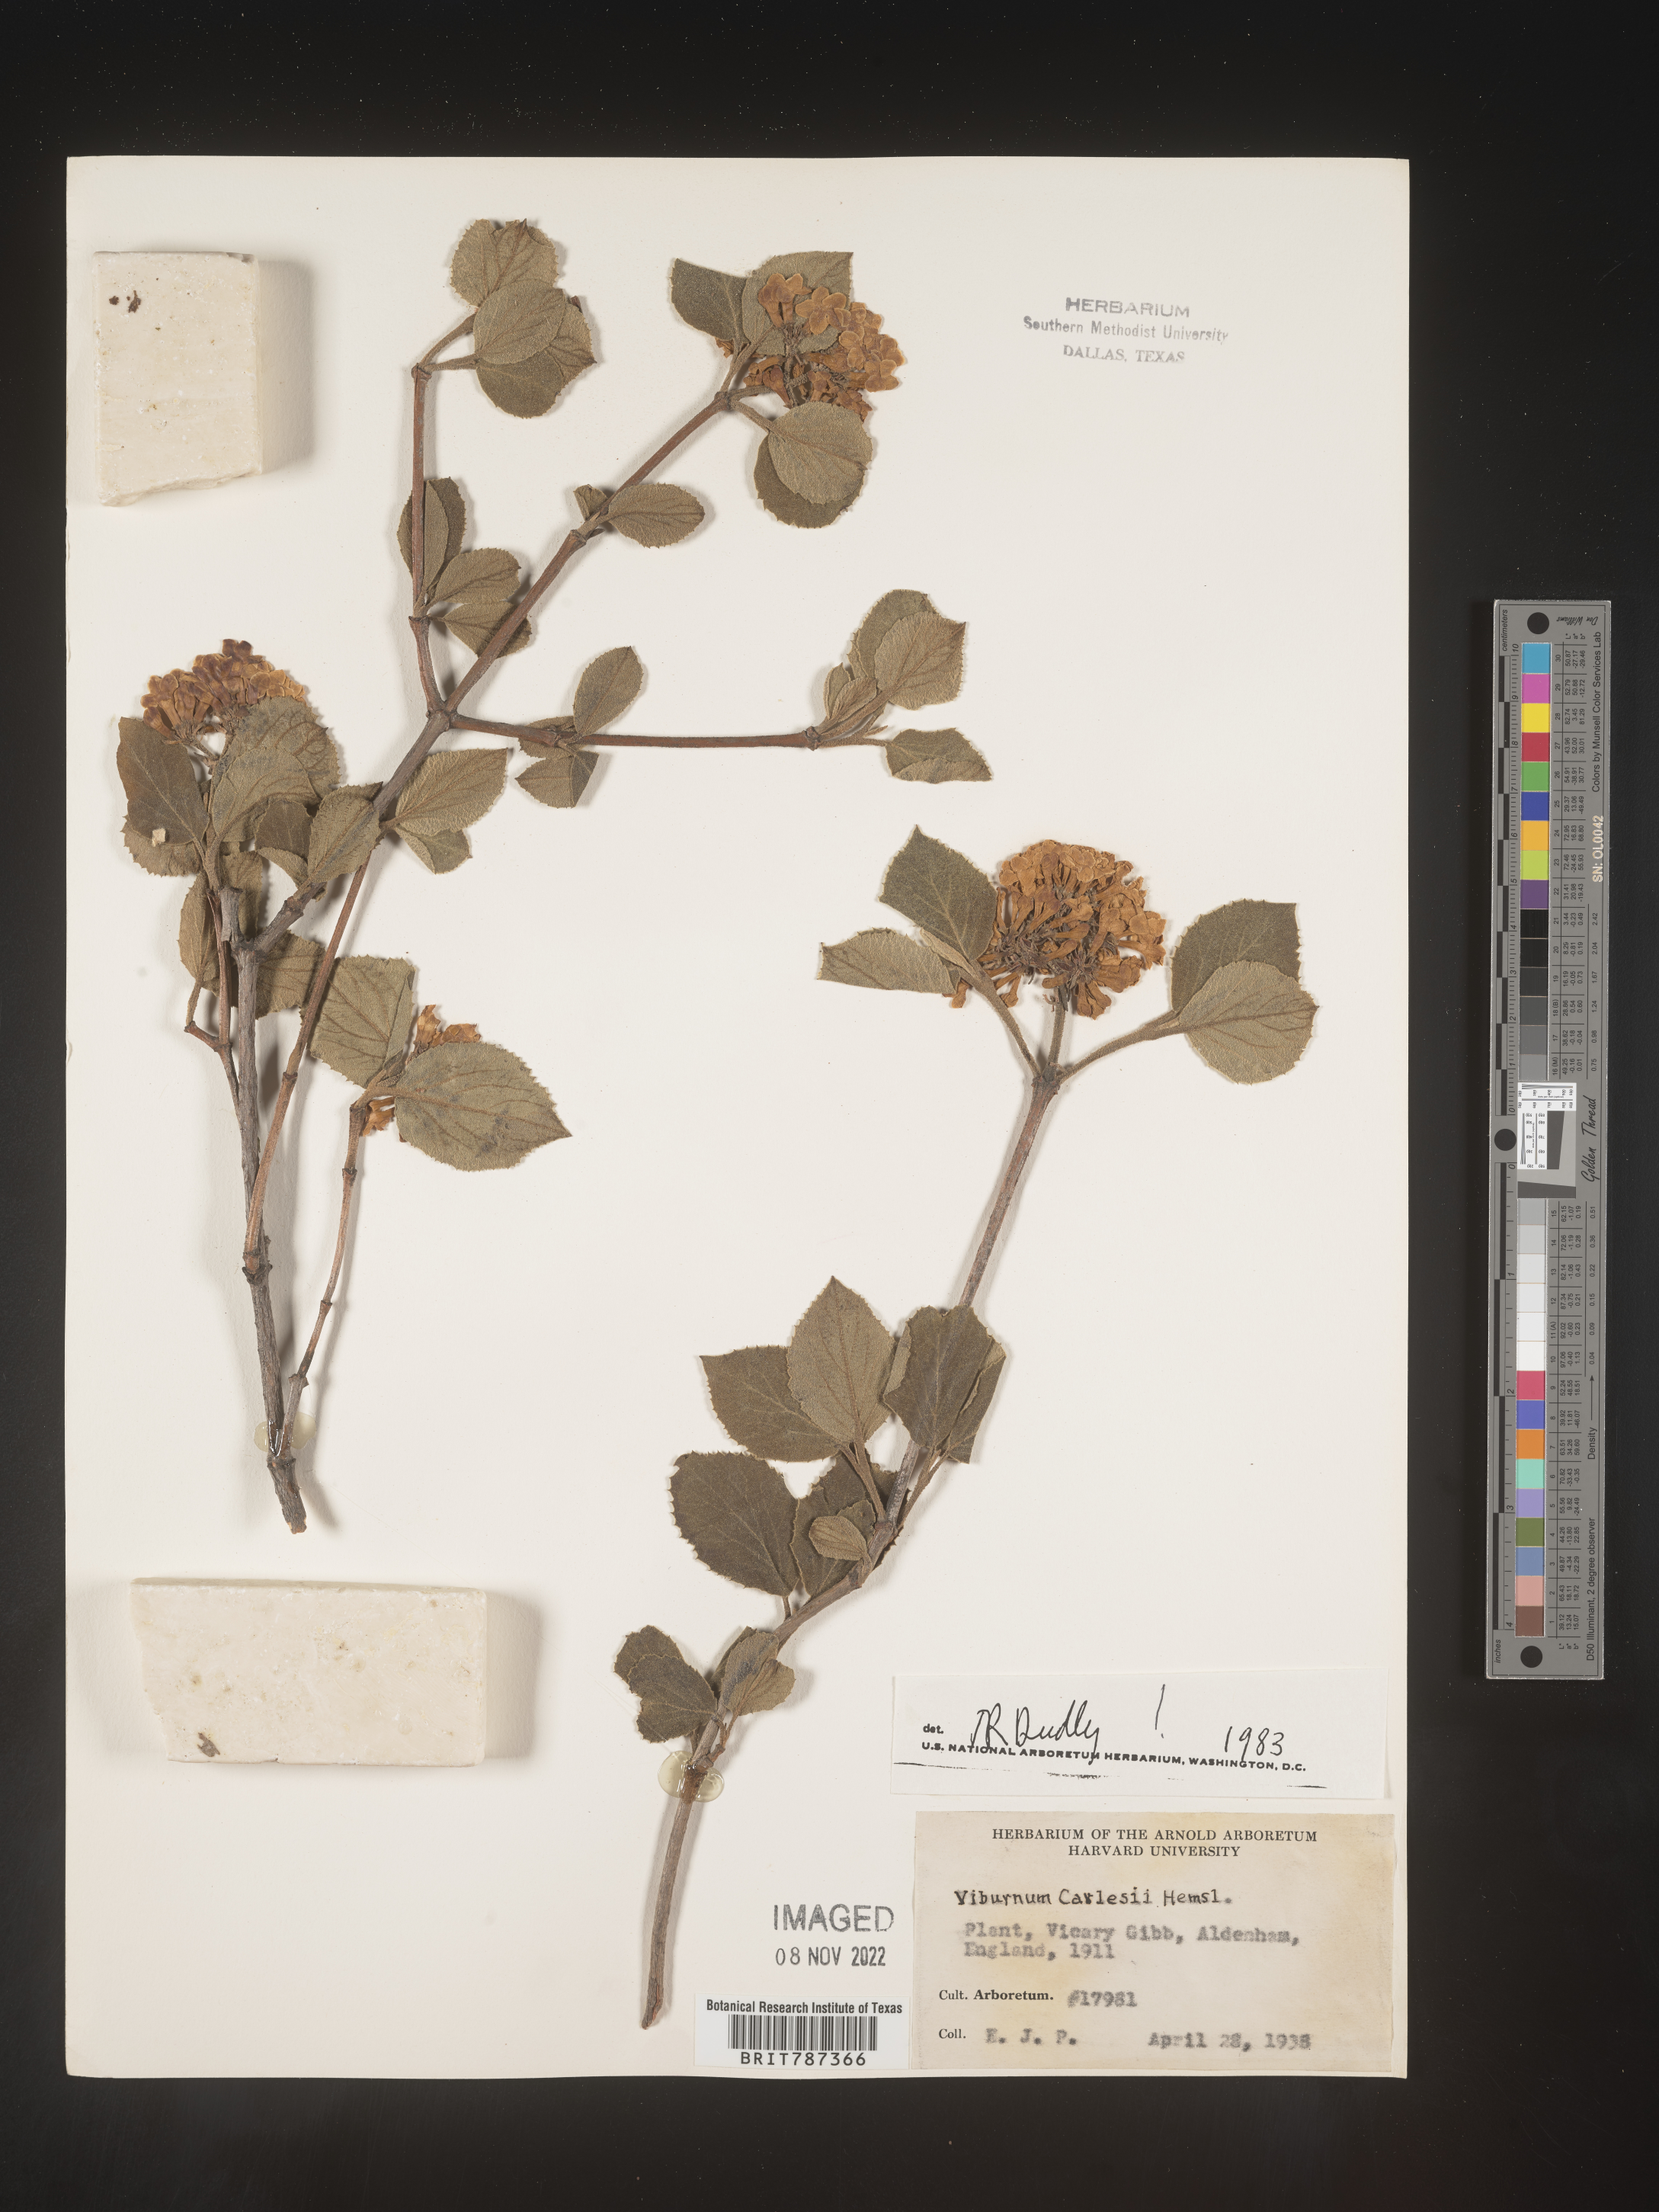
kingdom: Plantae
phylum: Tracheophyta
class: Magnoliopsida
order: Dipsacales
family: Viburnaceae
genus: Viburnum
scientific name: Viburnum
